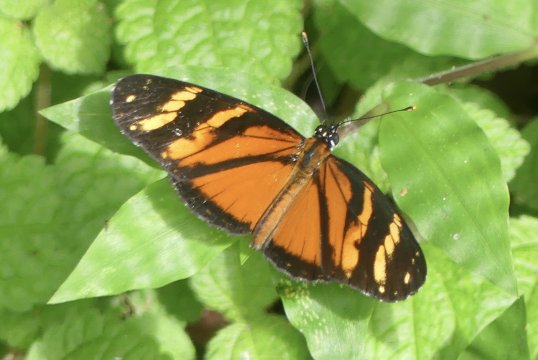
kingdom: Animalia
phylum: Arthropoda
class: Insecta
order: Lepidoptera
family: Nymphalidae
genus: Eresia
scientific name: Eresia ithomioides
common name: Variable Crescent
